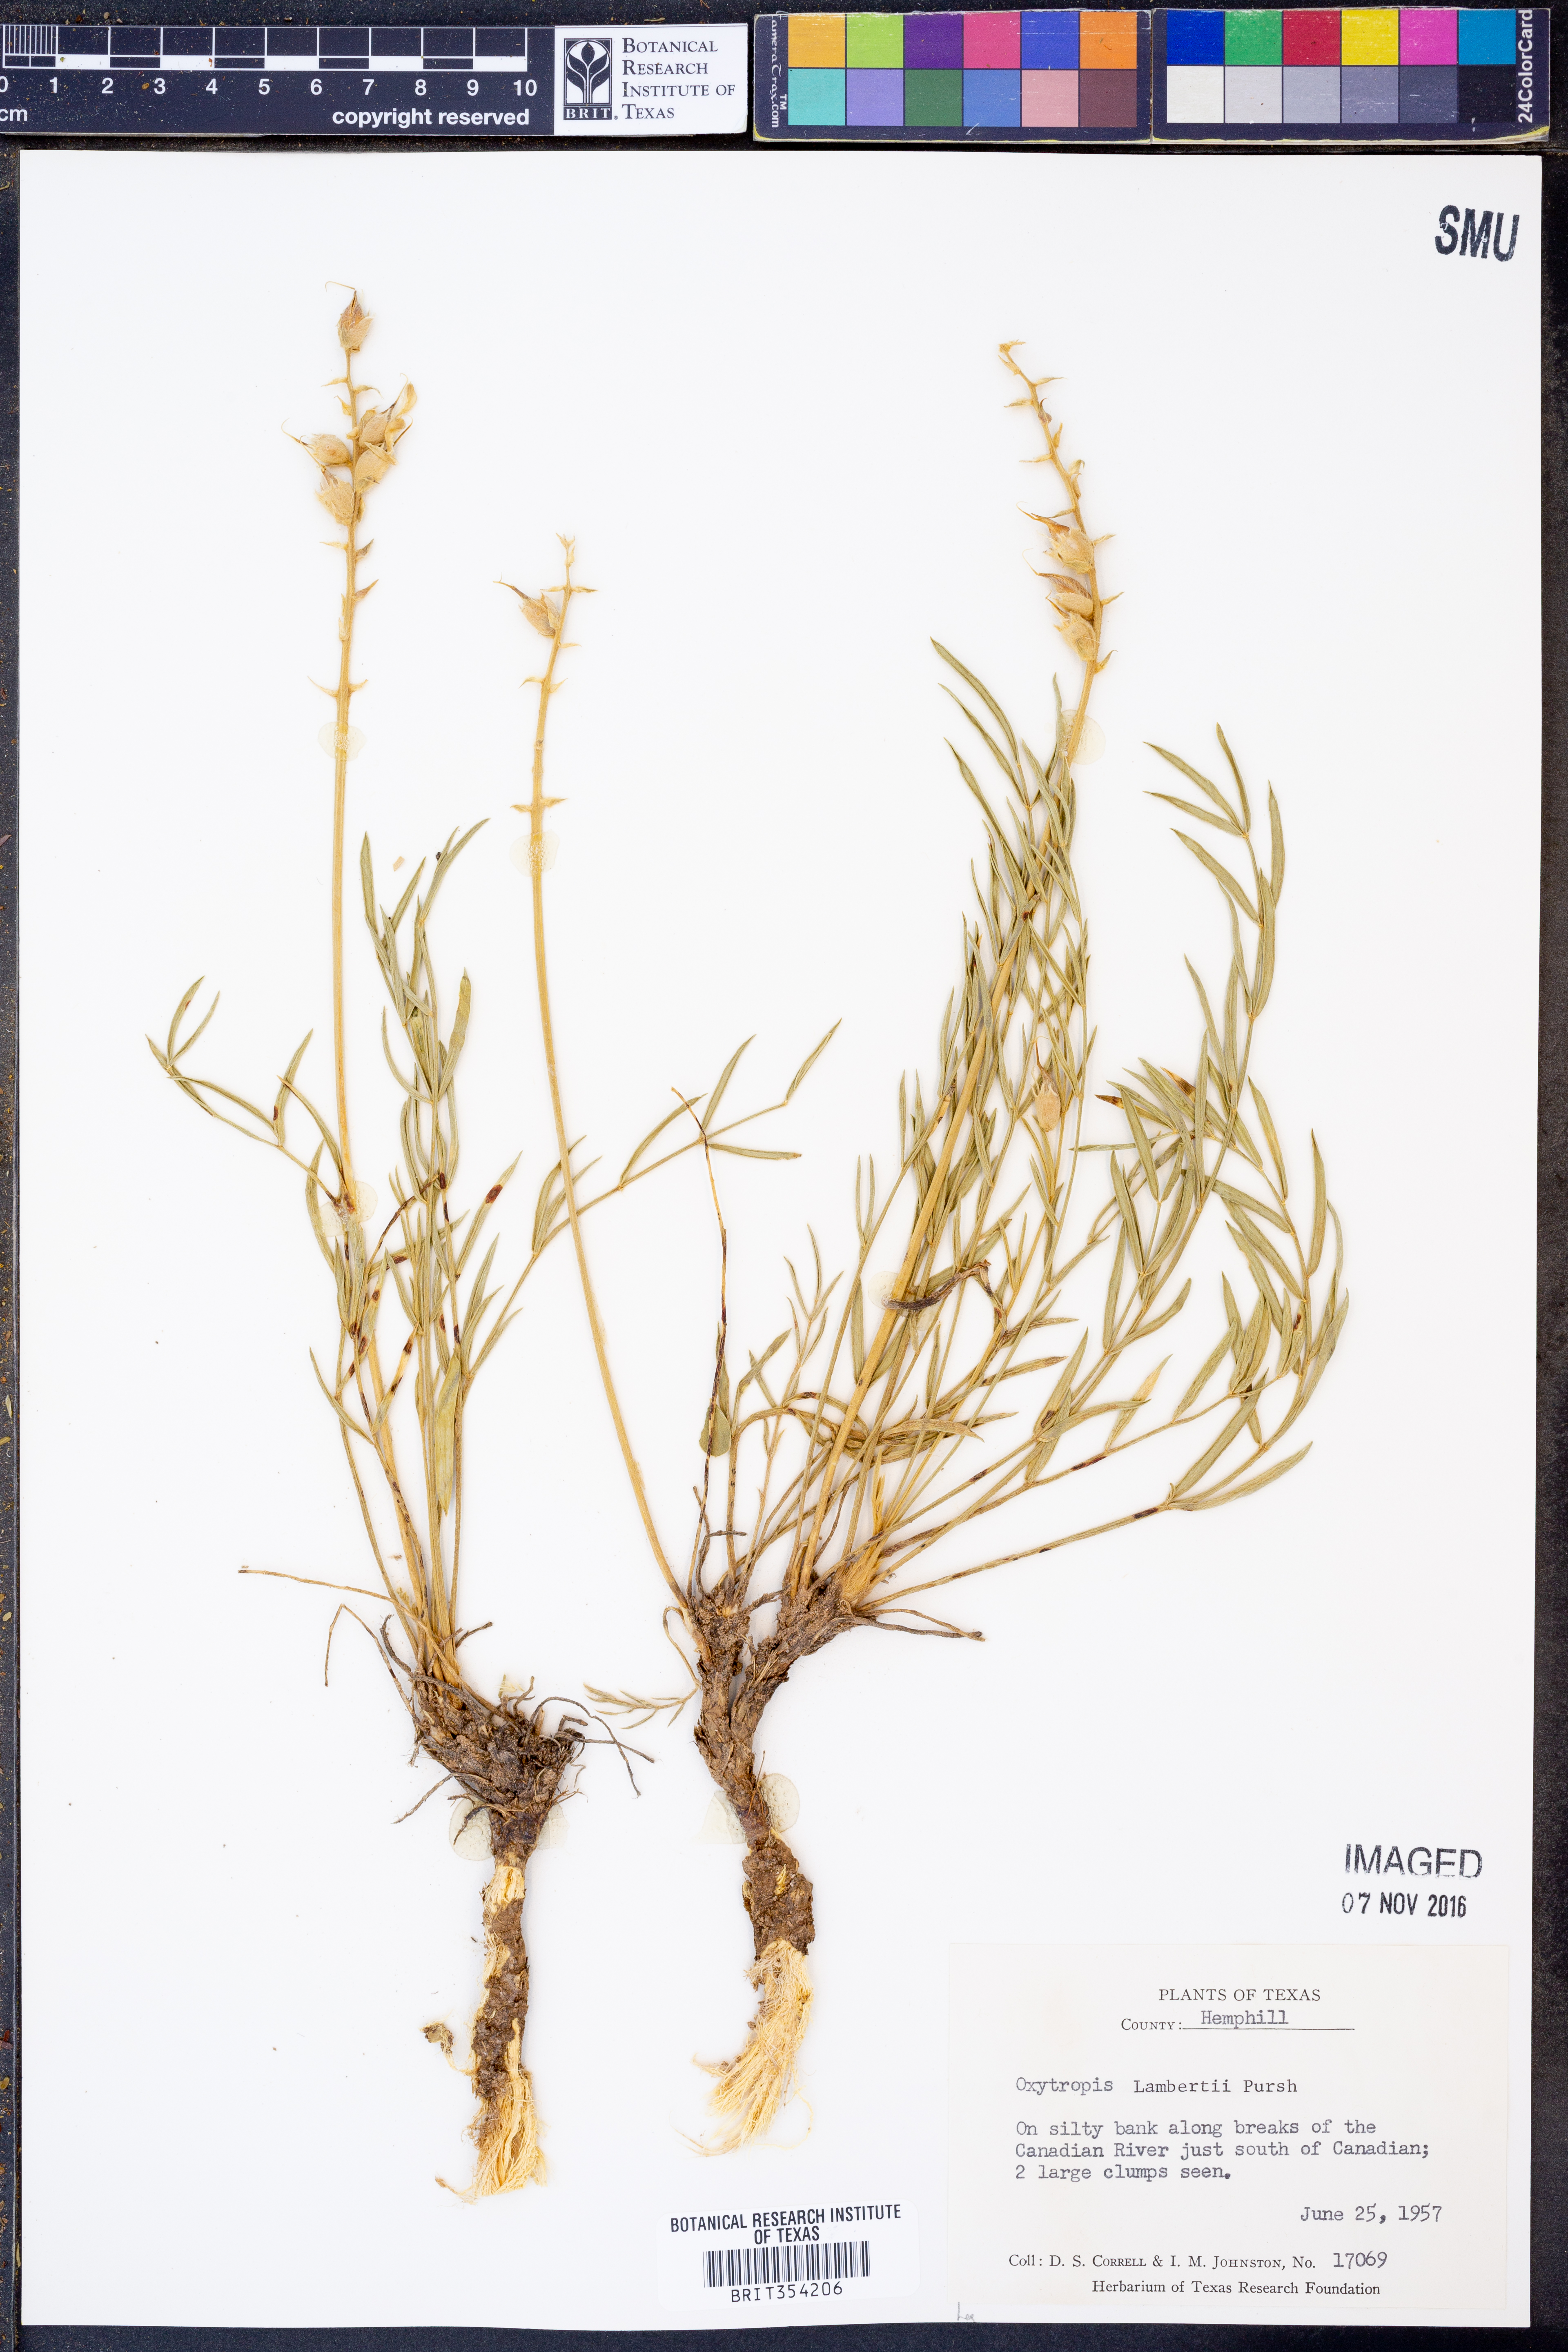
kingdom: Plantae
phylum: Tracheophyta
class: Magnoliopsida
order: Fabales
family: Fabaceae
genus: Oxytropis
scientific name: Oxytropis lambertii
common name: Purple locoweed
